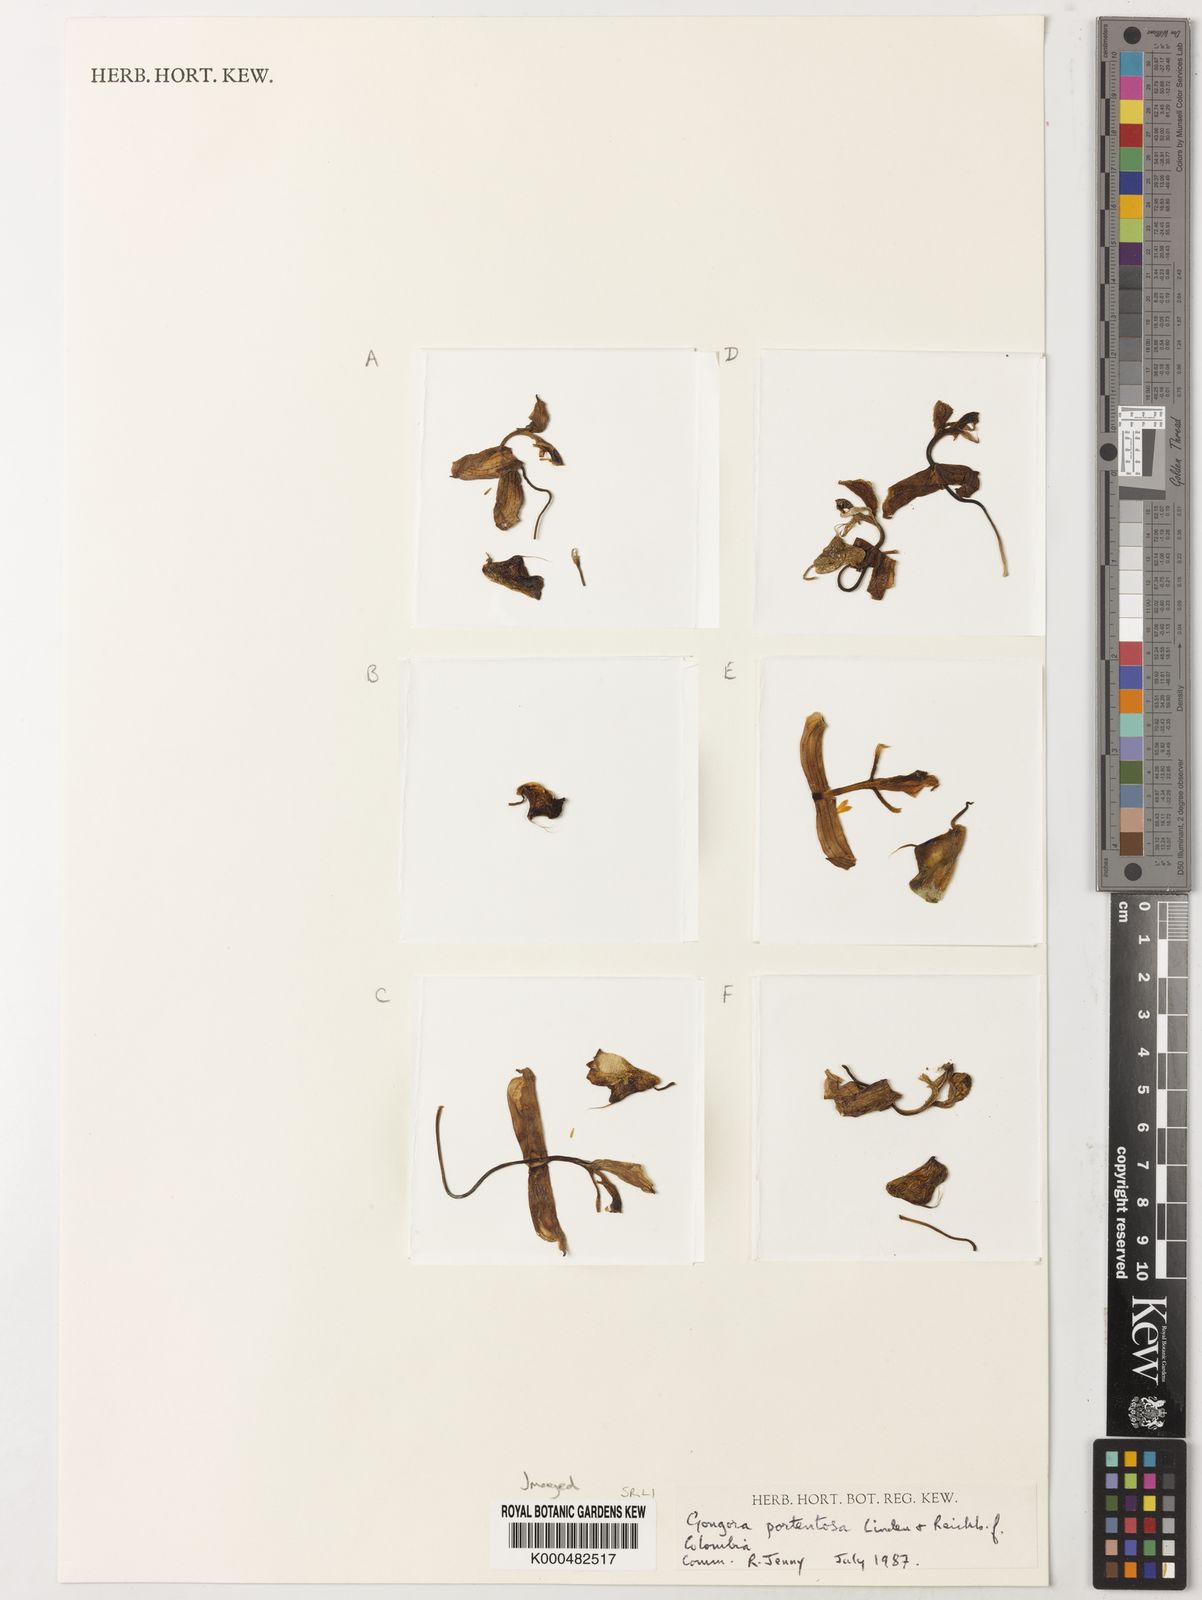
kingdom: Plantae
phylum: Tracheophyta
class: Liliopsida
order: Asparagales
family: Orchidaceae
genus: Gongora
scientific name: Gongora portentosa
